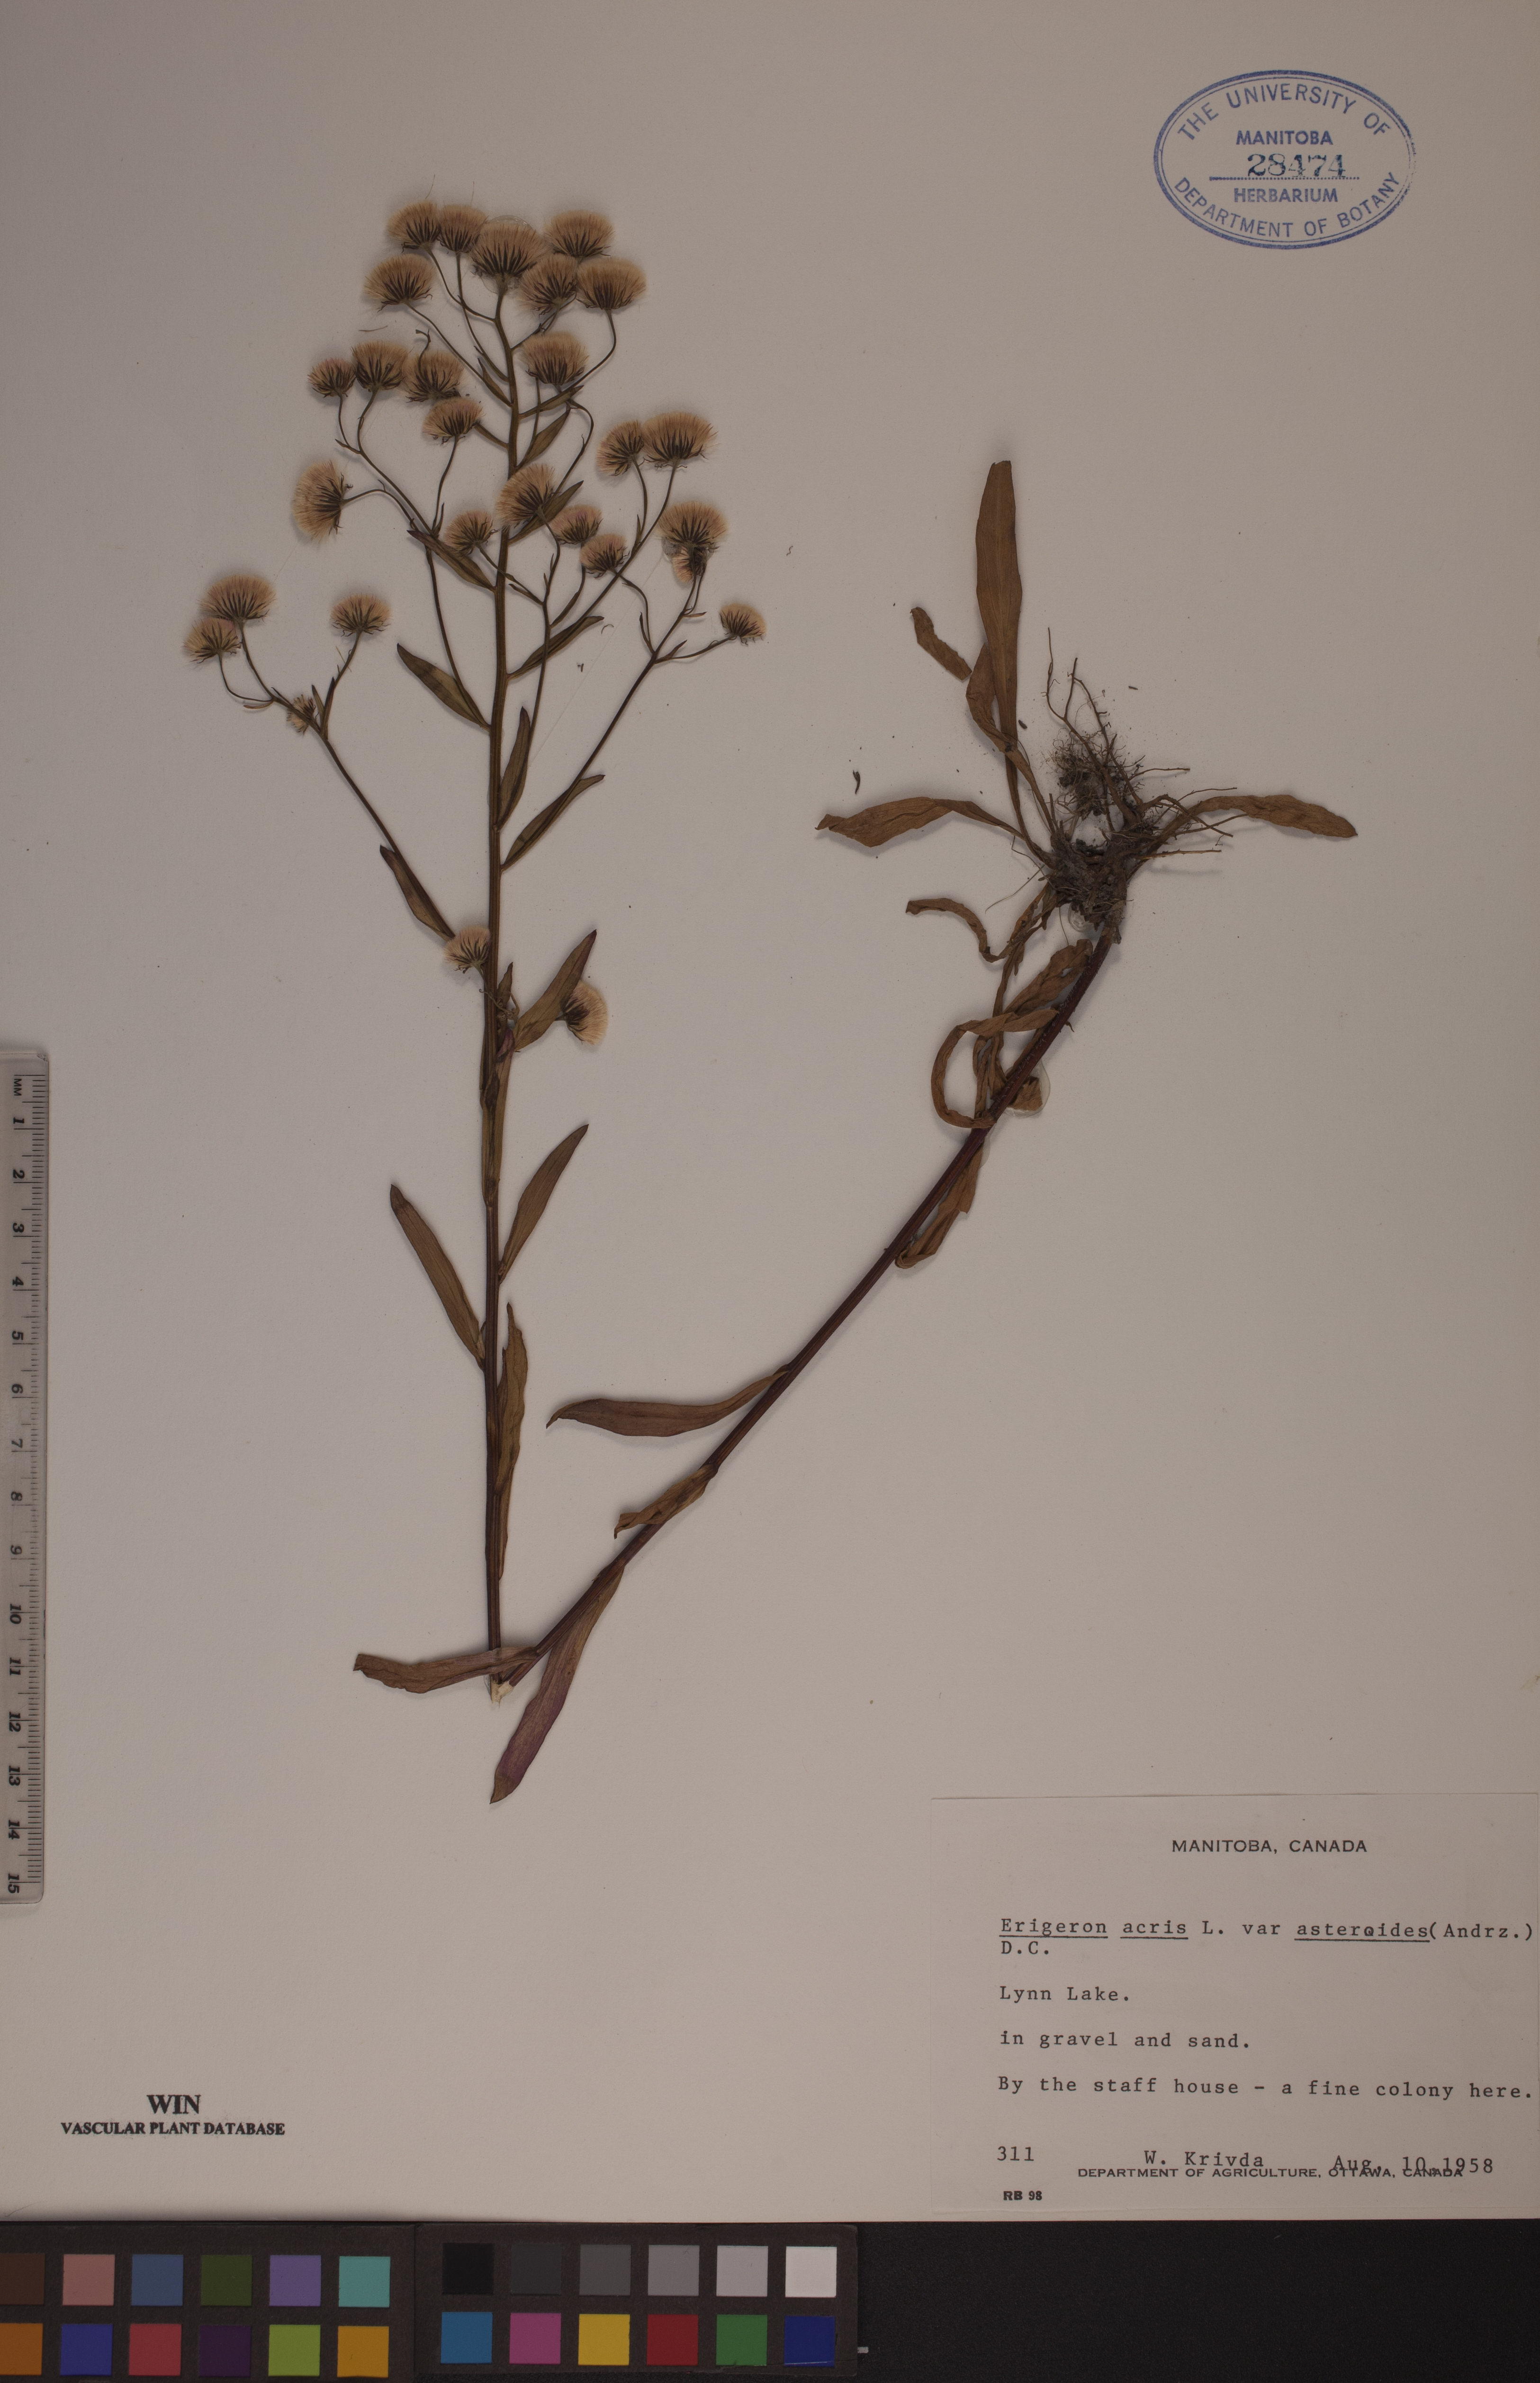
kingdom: Plantae
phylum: Tracheophyta
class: Magnoliopsida
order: Asterales
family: Asteraceae
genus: Erigeron
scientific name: Erigeron podolicus
